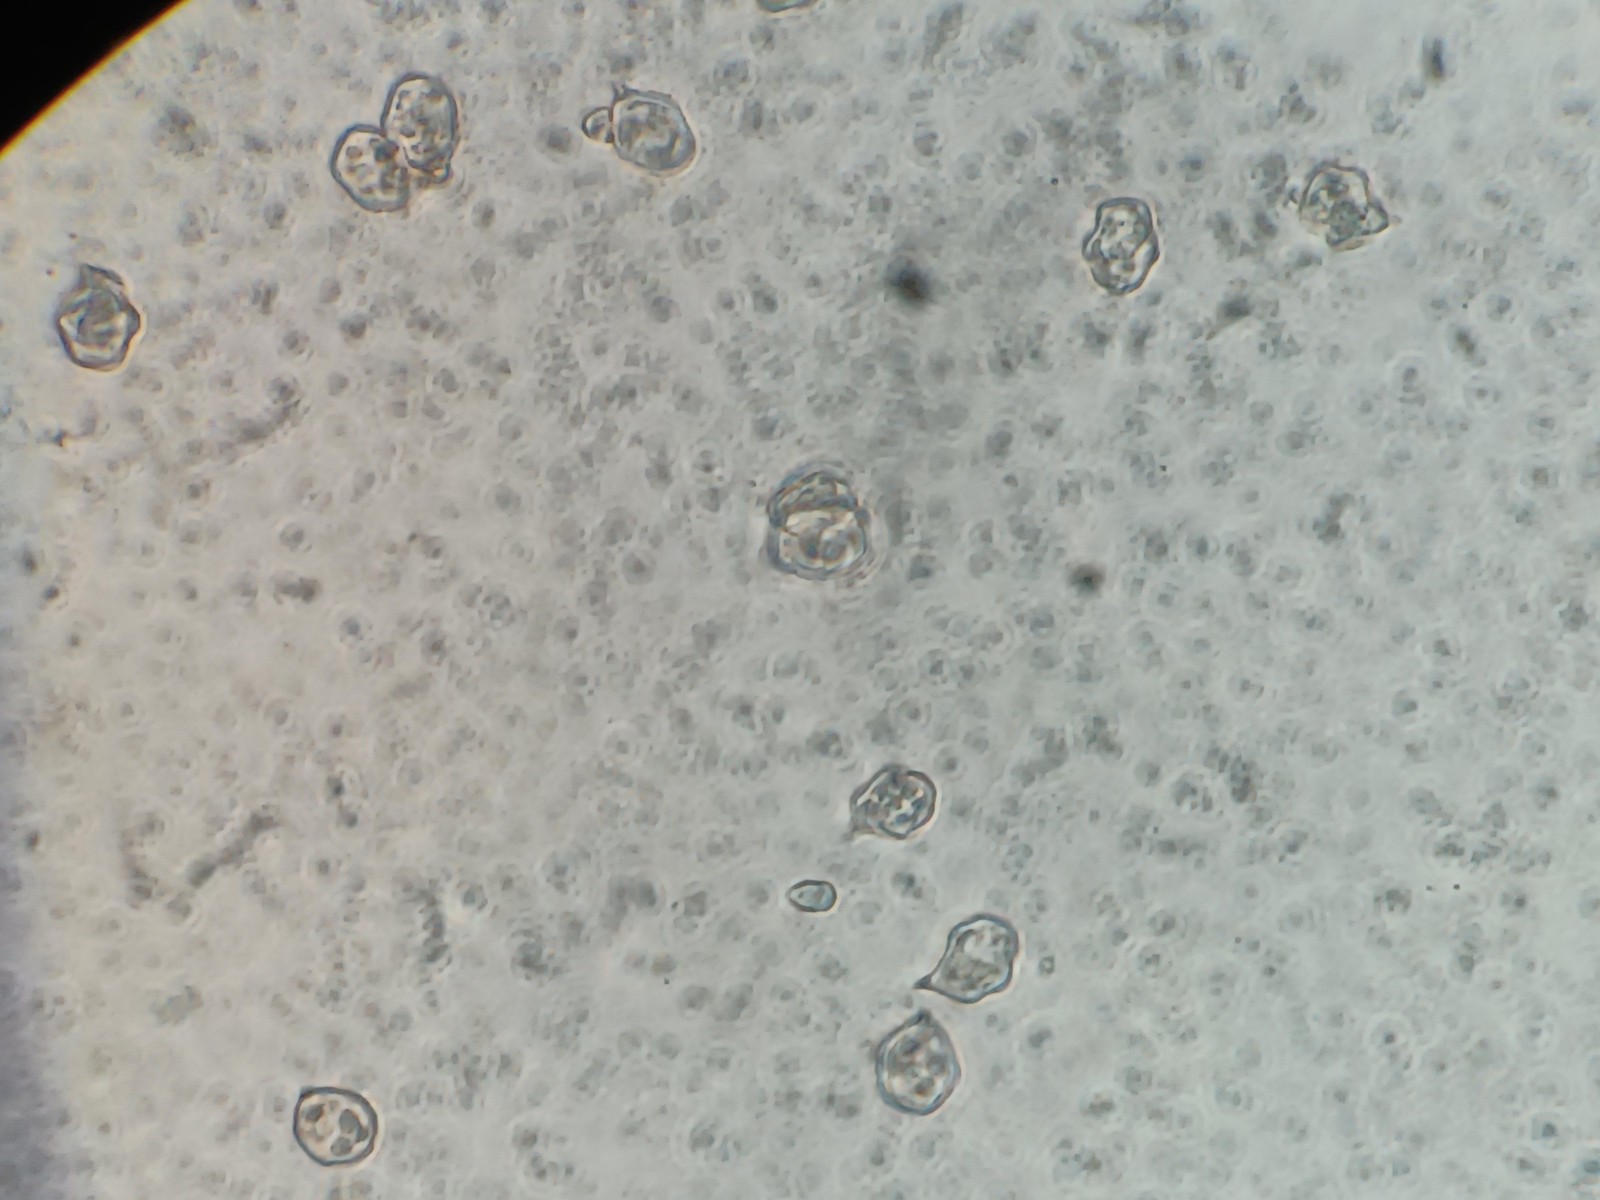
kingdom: Fungi
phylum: Basidiomycota
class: Agaricomycetes
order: Agaricales
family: Entolomataceae
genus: Entoloma
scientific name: Entoloma
